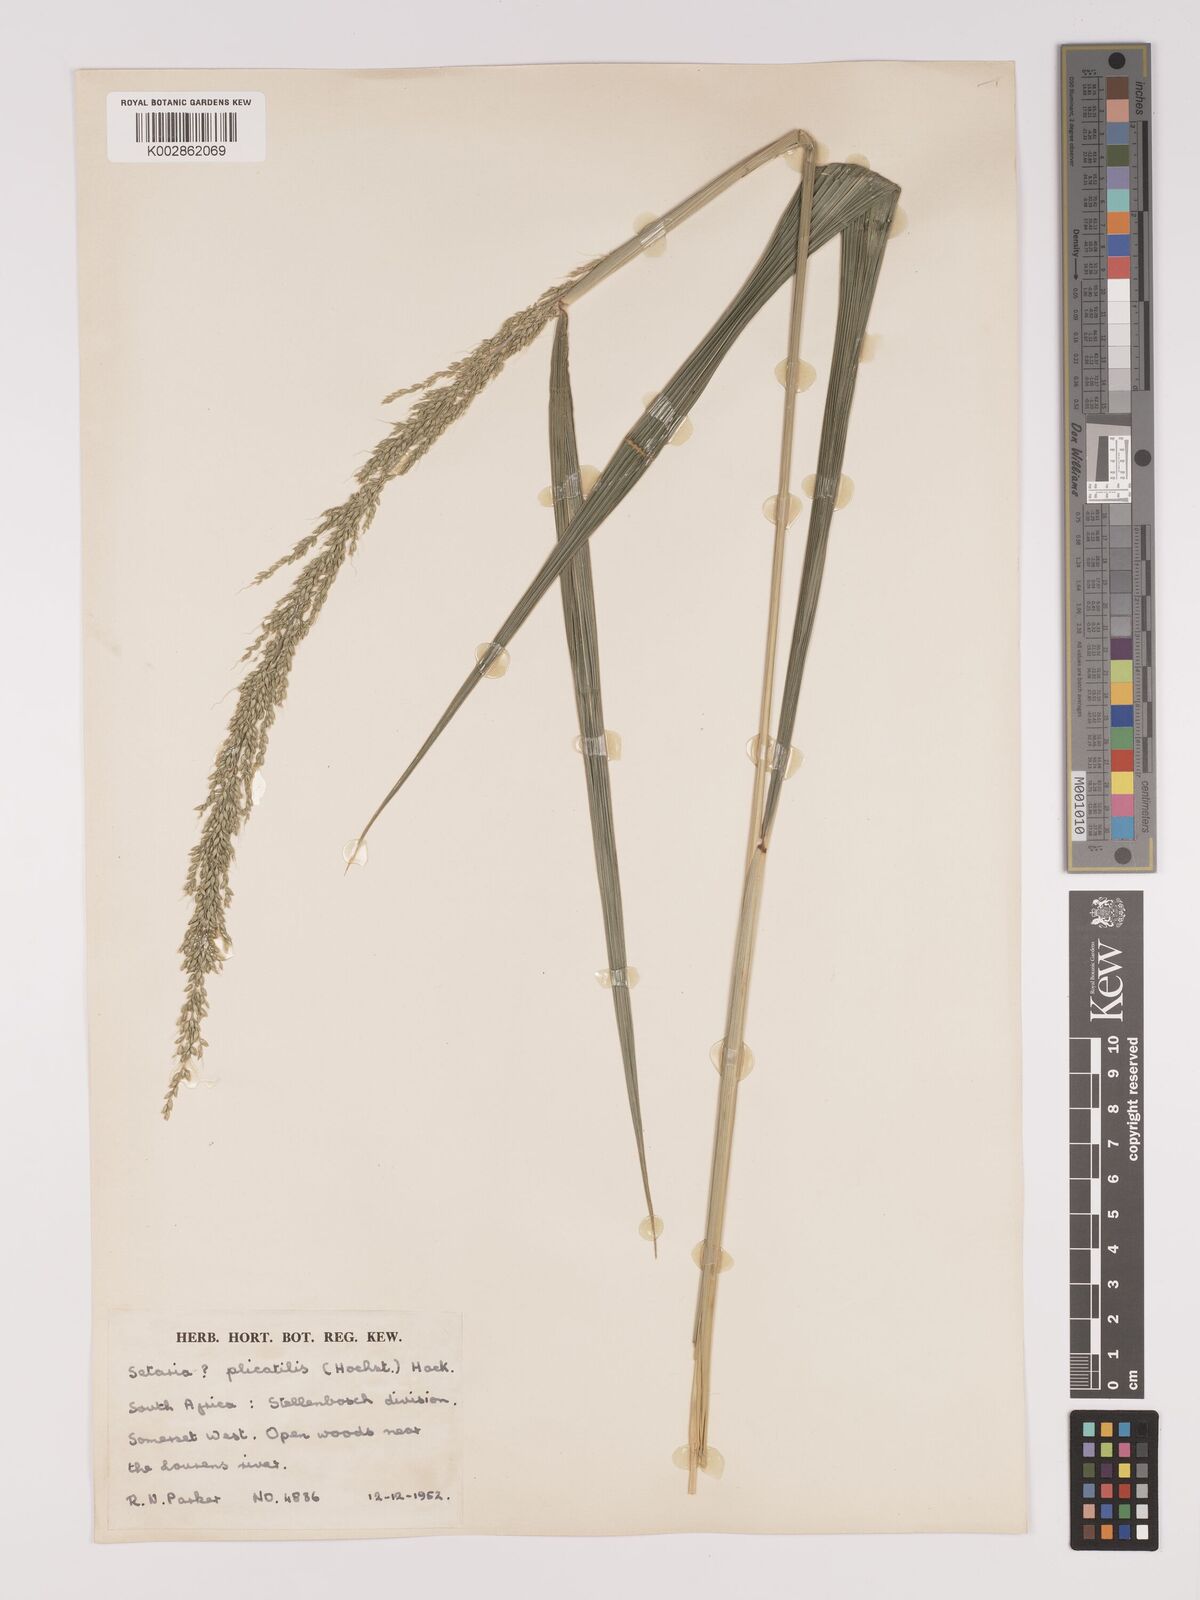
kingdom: Plantae
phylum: Tracheophyta
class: Liliopsida
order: Poales
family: Poaceae
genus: Setaria
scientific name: Setaria megaphylla
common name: Bigleaf bristlegrass
